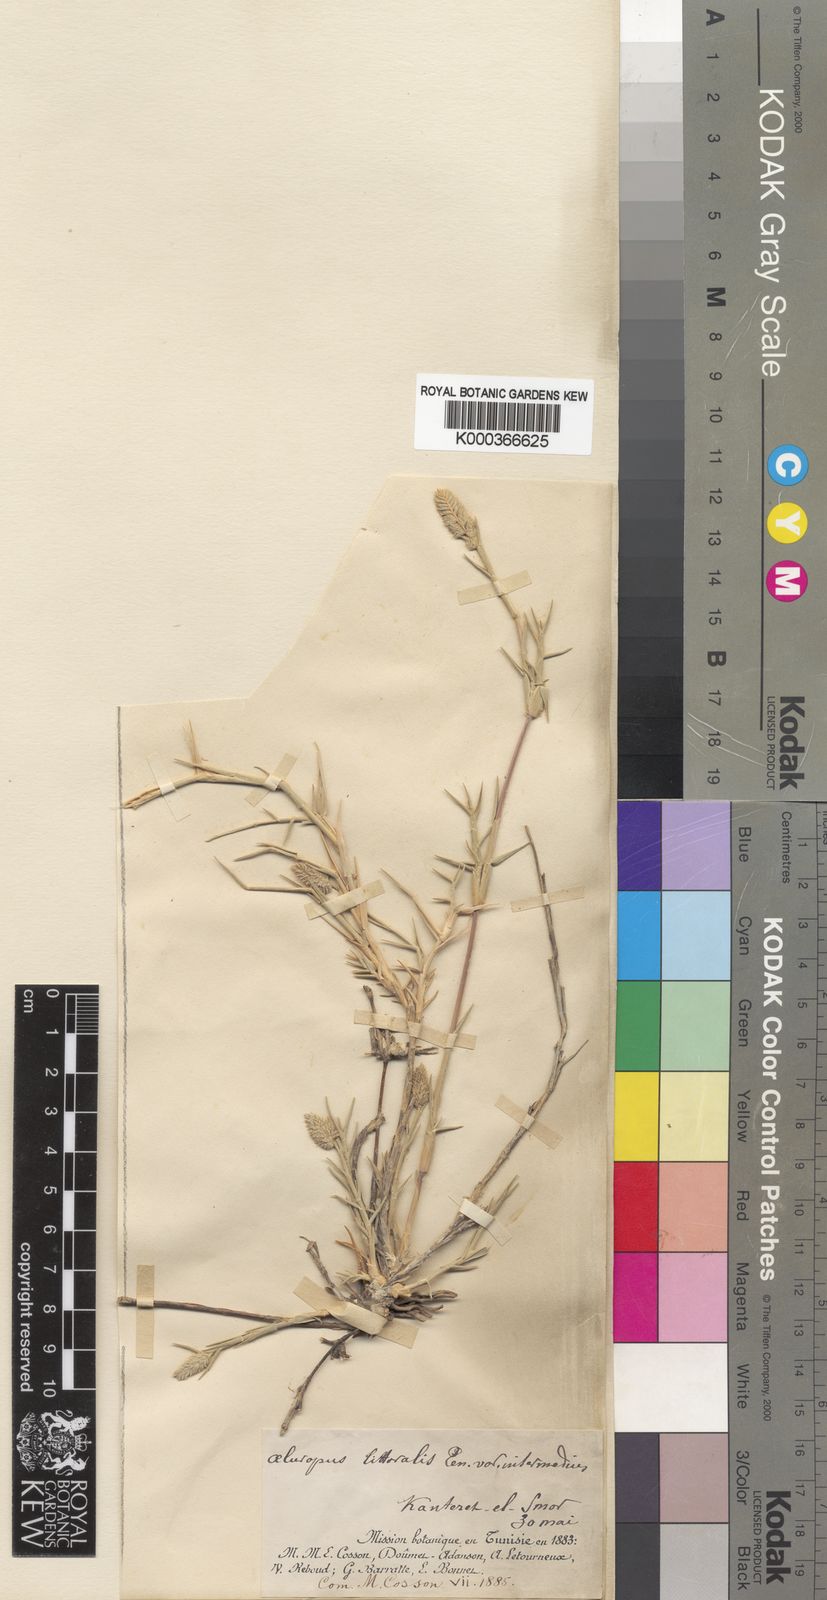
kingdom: Plantae
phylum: Tracheophyta
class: Liliopsida
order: Poales
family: Poaceae
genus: Aeluropus
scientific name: Aeluropus littoralis
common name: Indian walnut
